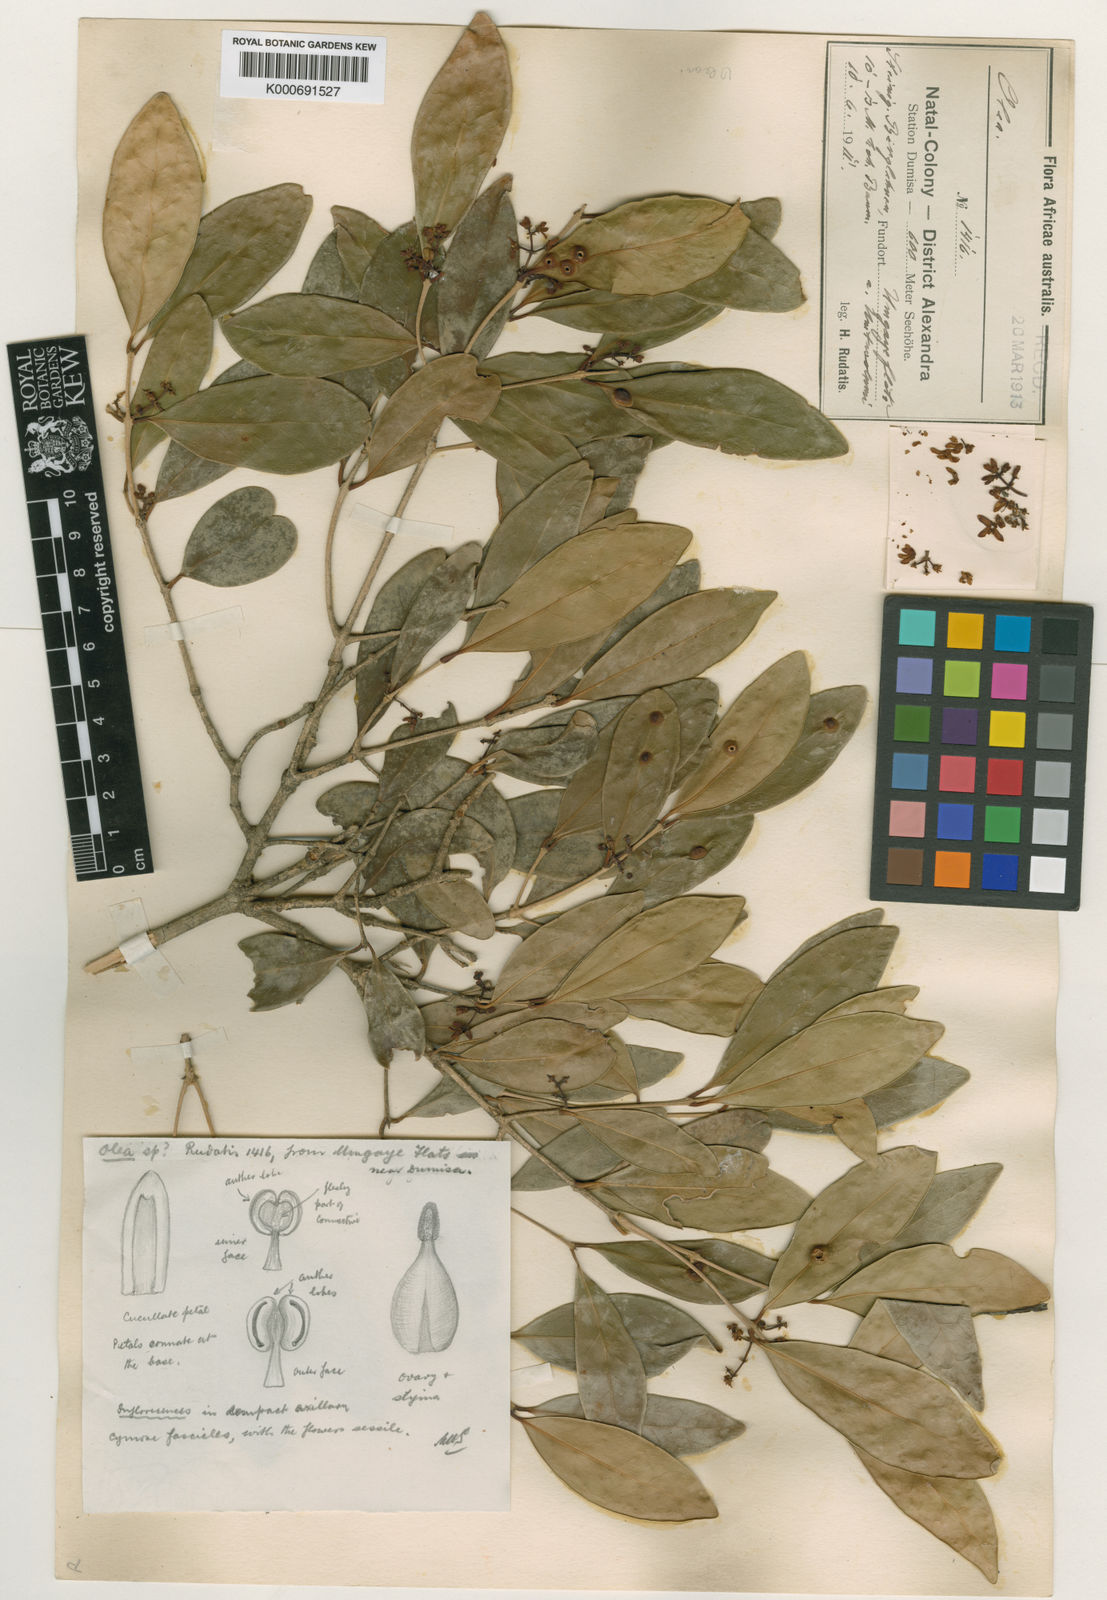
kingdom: Plantae
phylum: Tracheophyta
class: Magnoliopsida
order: Lamiales
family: Oleaceae
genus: Noronhia
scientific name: Noronhia foveolata
